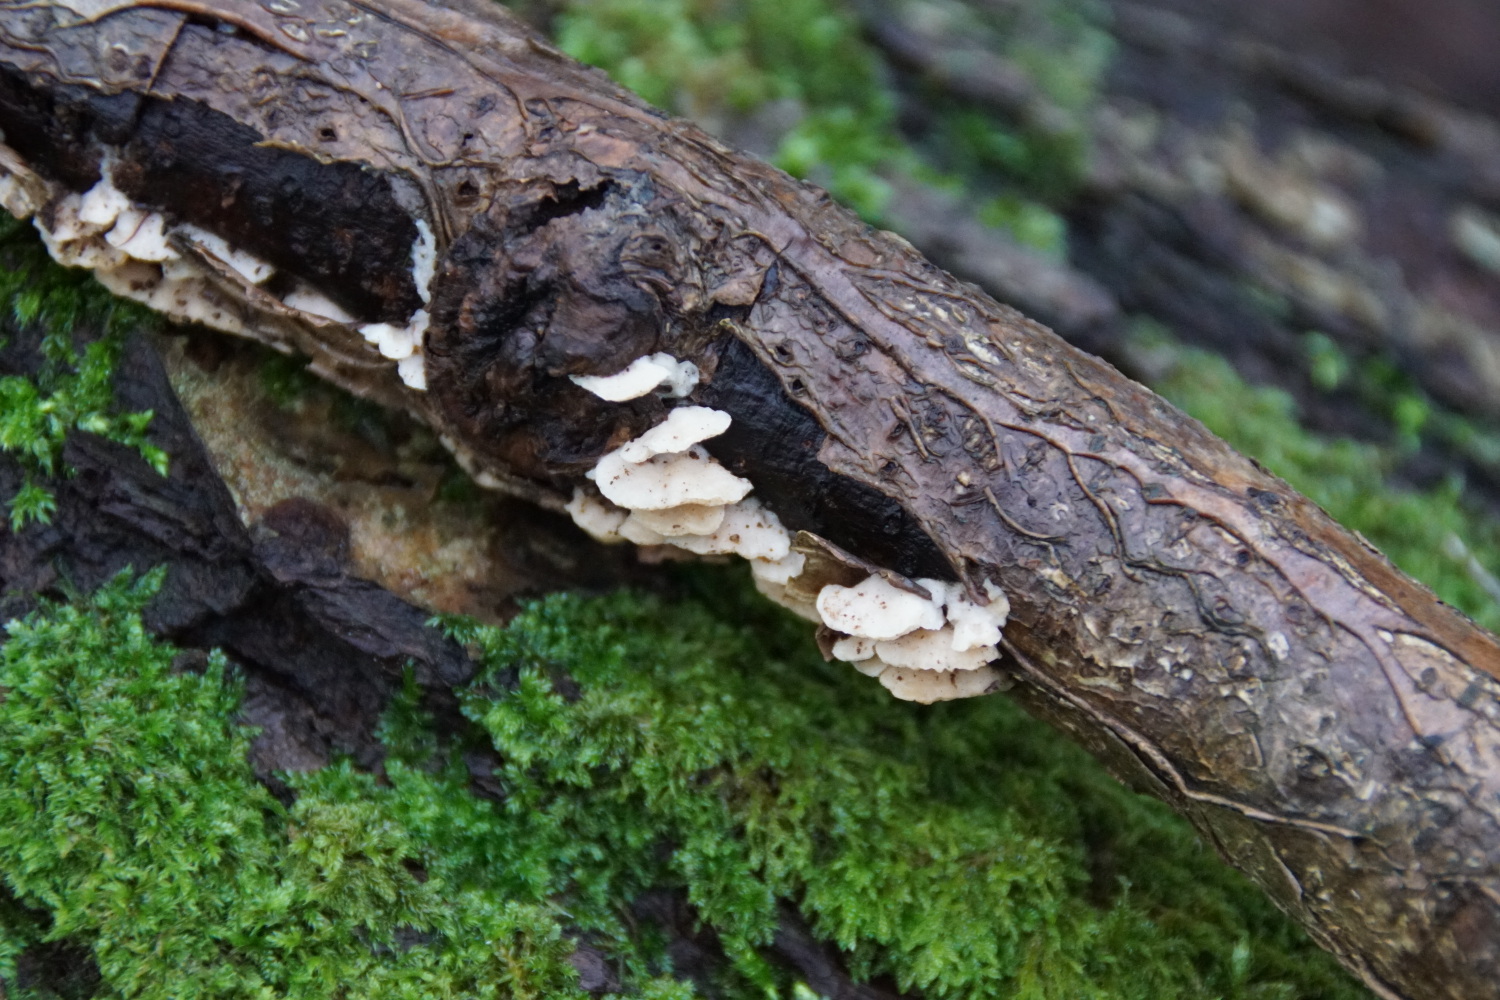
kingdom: Fungi
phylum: Basidiomycota
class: Agaricomycetes
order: Polyporales
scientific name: Polyporales
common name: poresvampordenen
